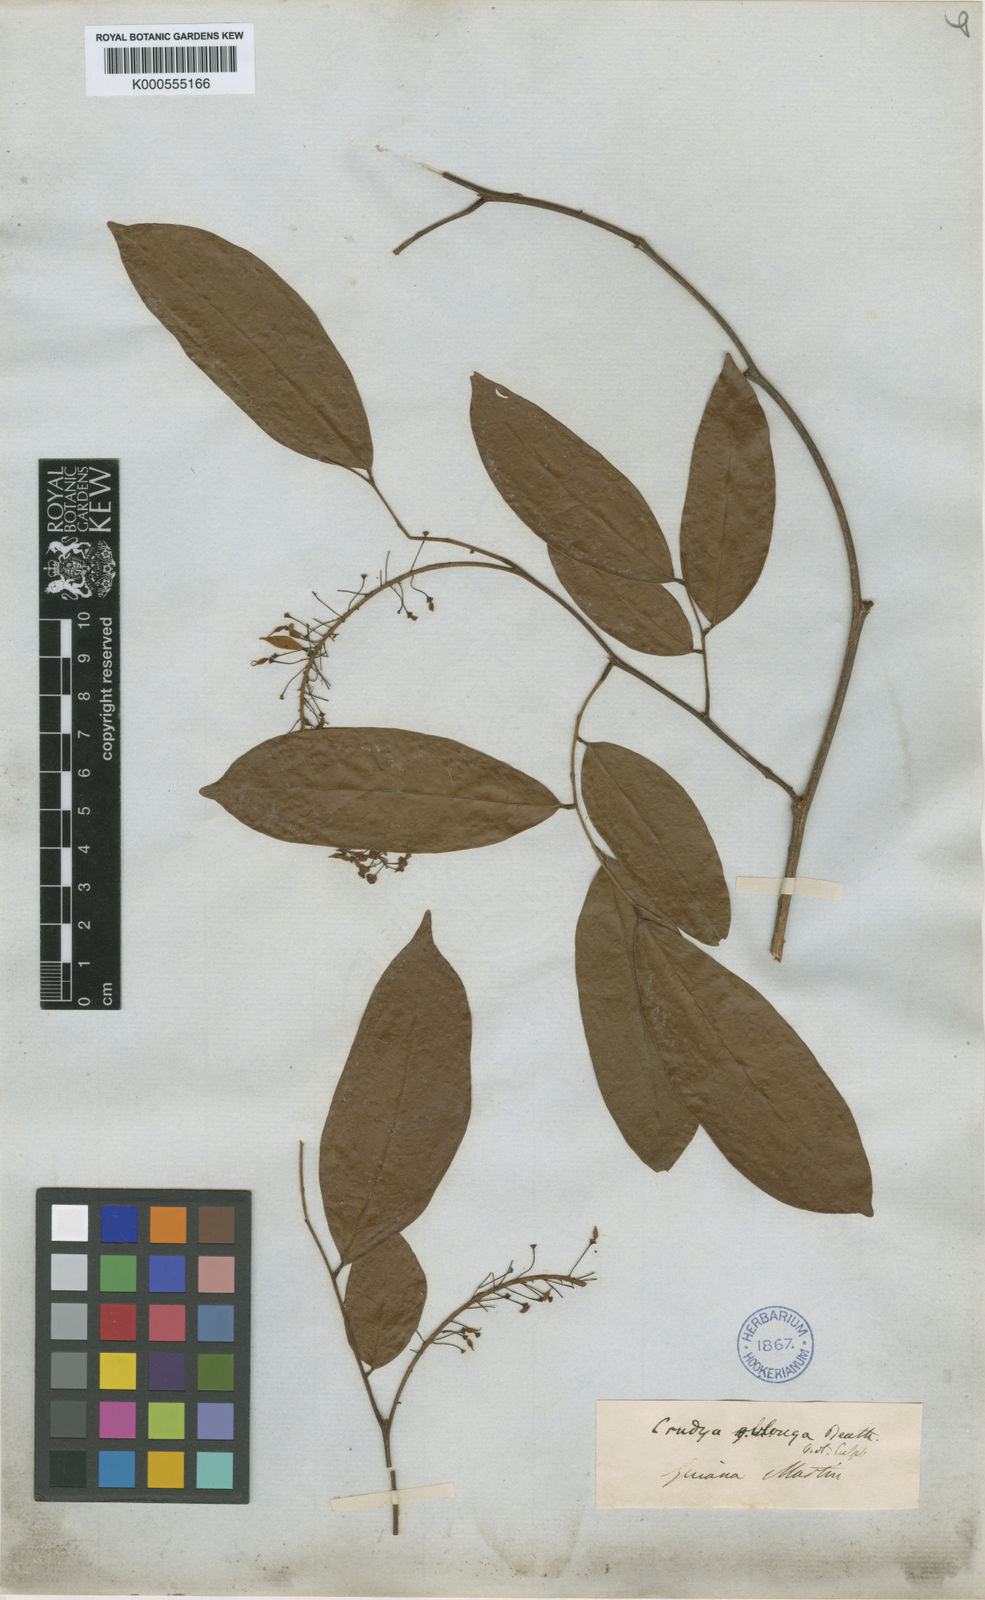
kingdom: Plantae
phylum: Tracheophyta
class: Magnoliopsida
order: Fabales
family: Fabaceae
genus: Crudia
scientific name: Crudia oblonga
